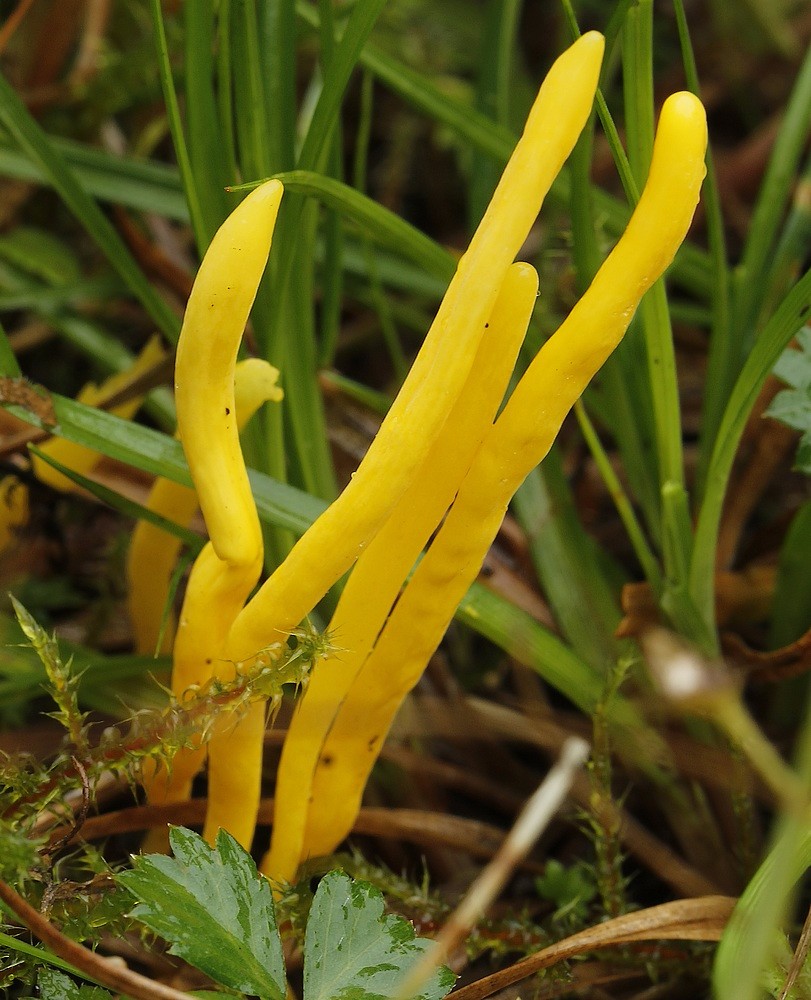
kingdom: Fungi
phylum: Basidiomycota
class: Agaricomycetes
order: Agaricales
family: Clavariaceae
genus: Clavulinopsis
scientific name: Clavulinopsis
